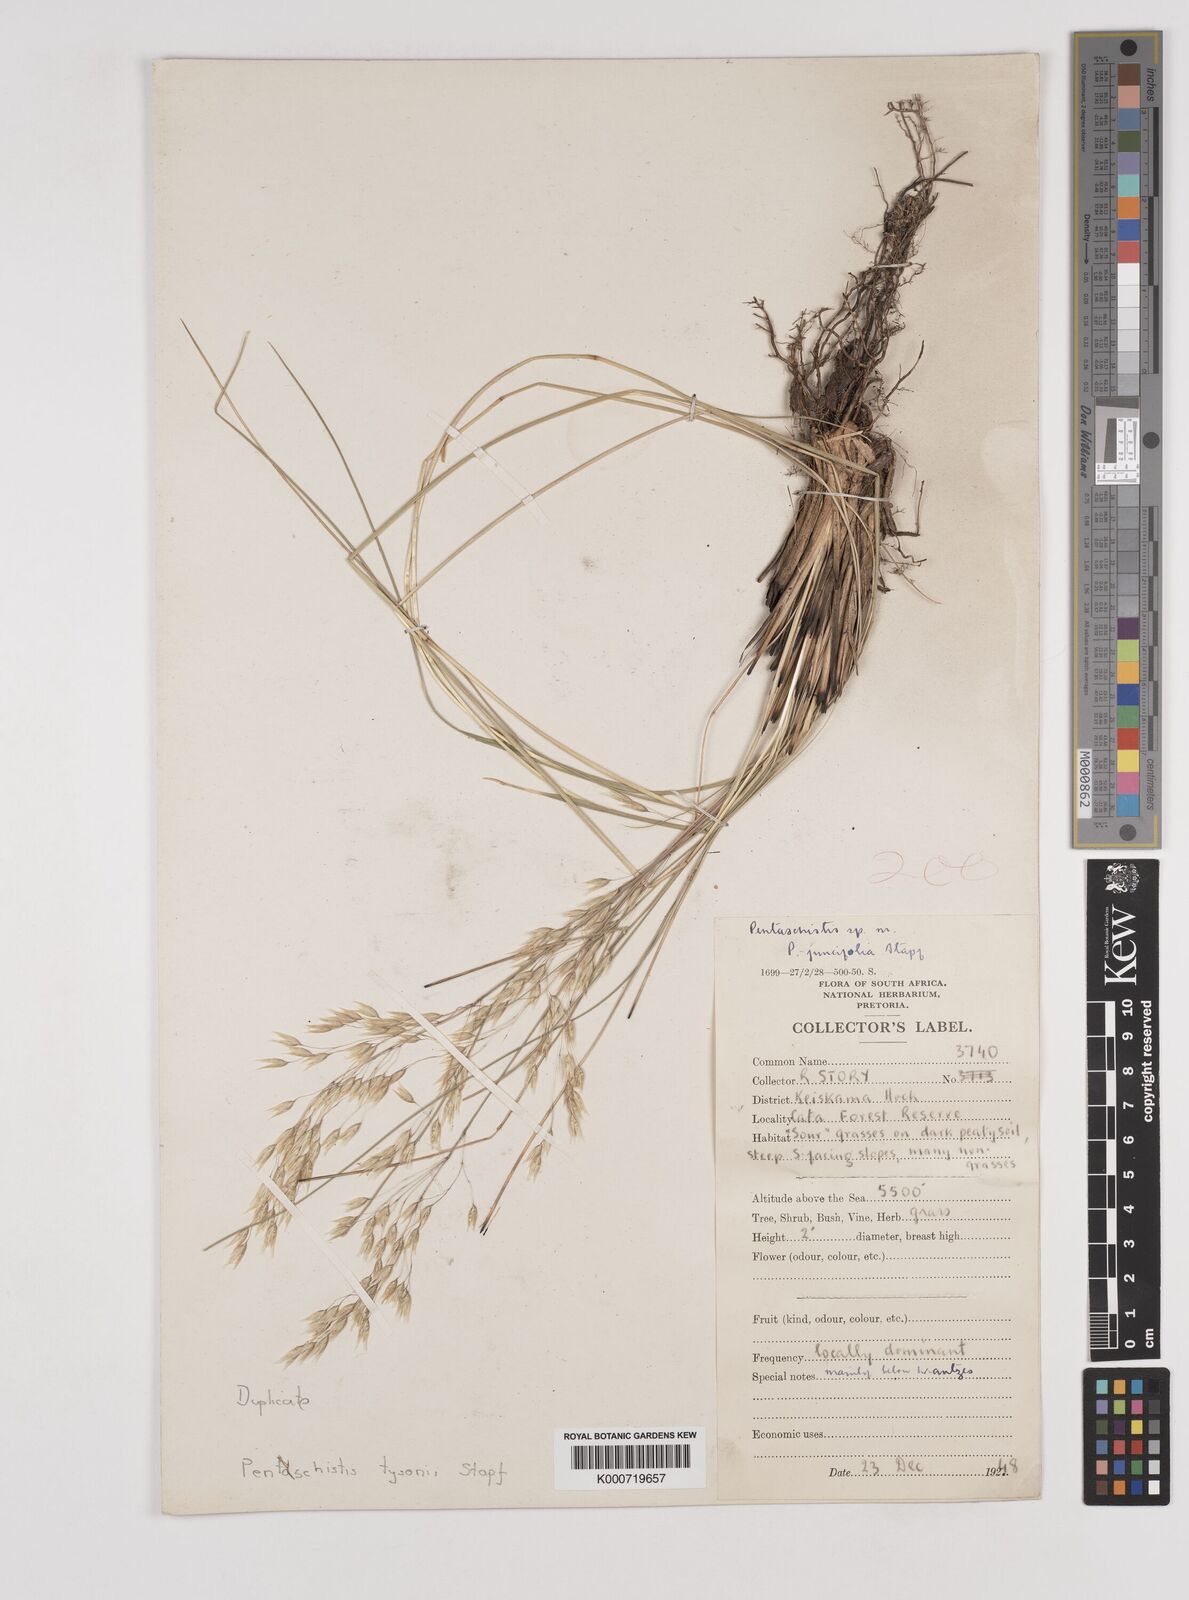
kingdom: Plantae
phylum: Tracheophyta
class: Liliopsida
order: Poales
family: Poaceae
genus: Pentameris
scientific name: Pentameris tysonii
